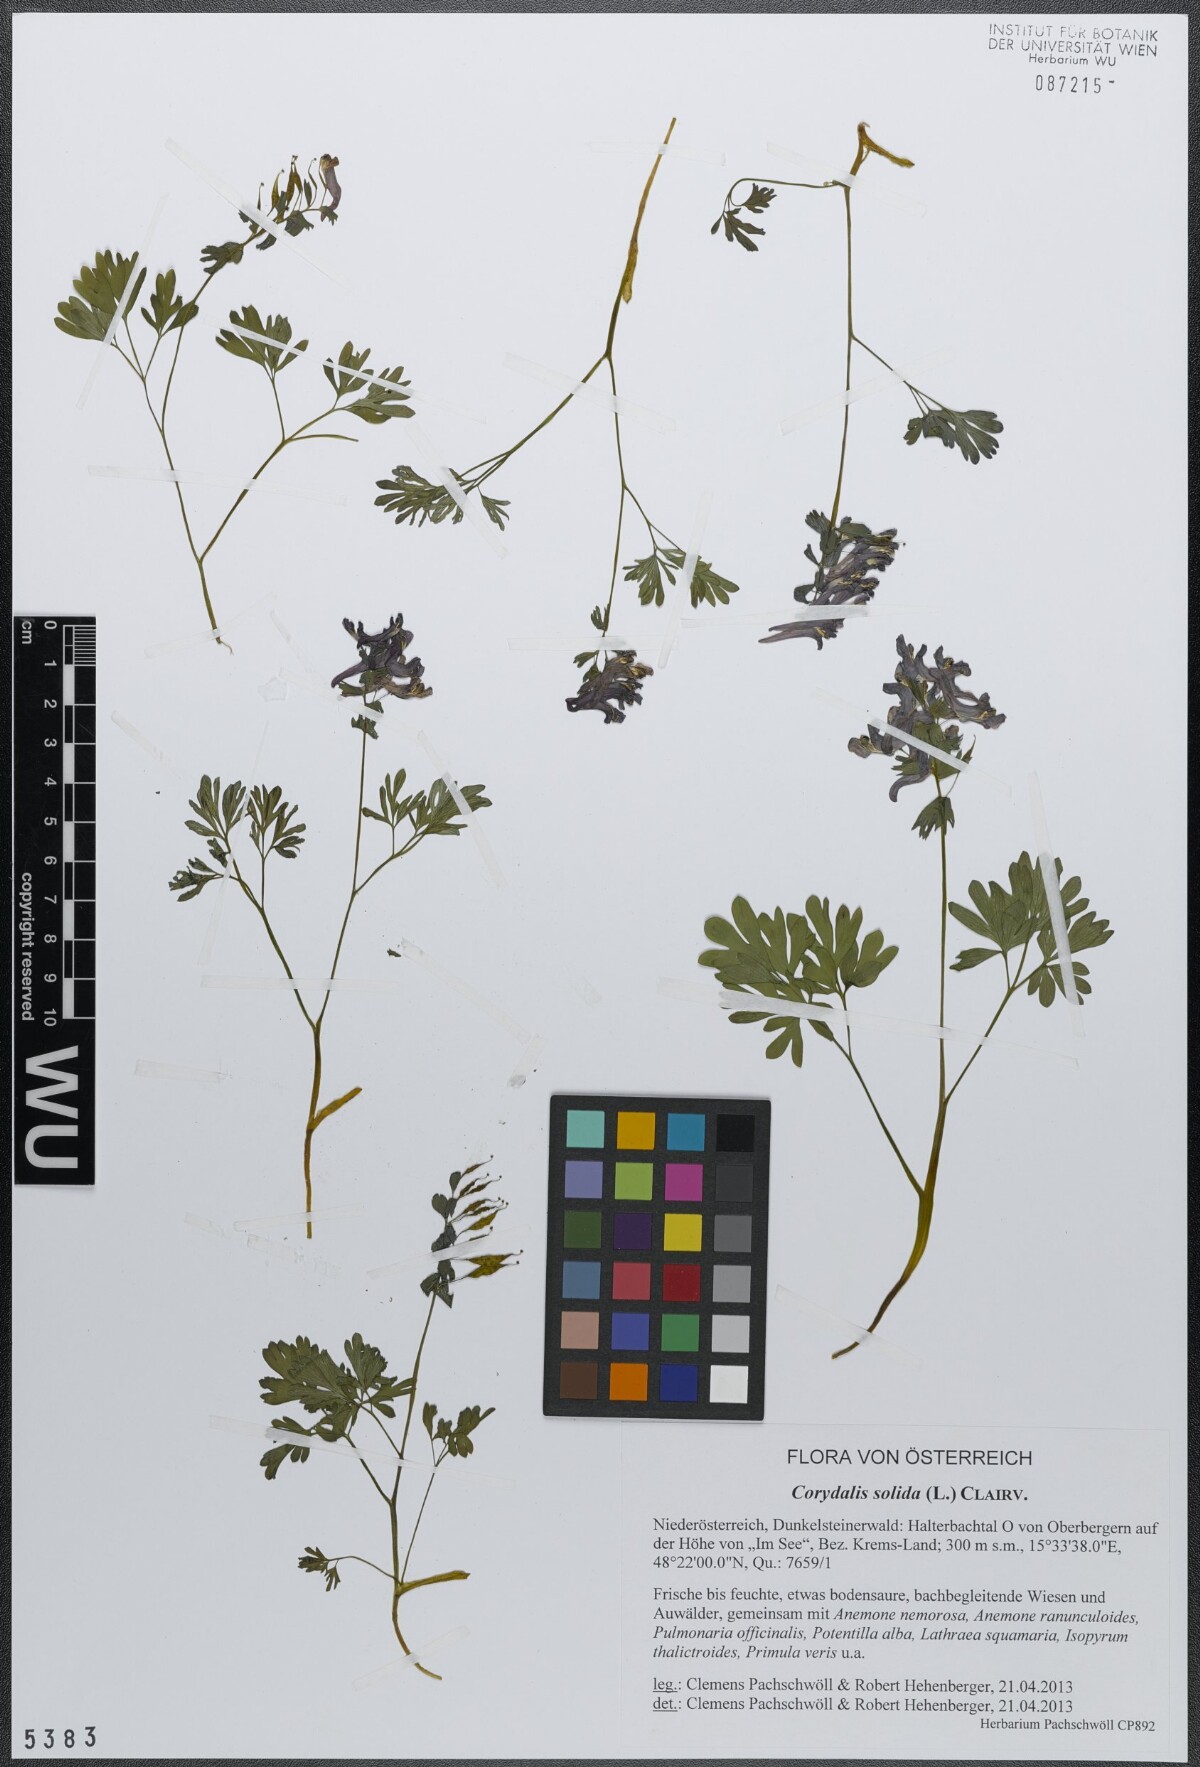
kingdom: Plantae
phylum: Tracheophyta
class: Magnoliopsida
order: Ranunculales
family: Papaveraceae
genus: Corydalis
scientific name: Corydalis solida
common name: Bird-in-a-bush
